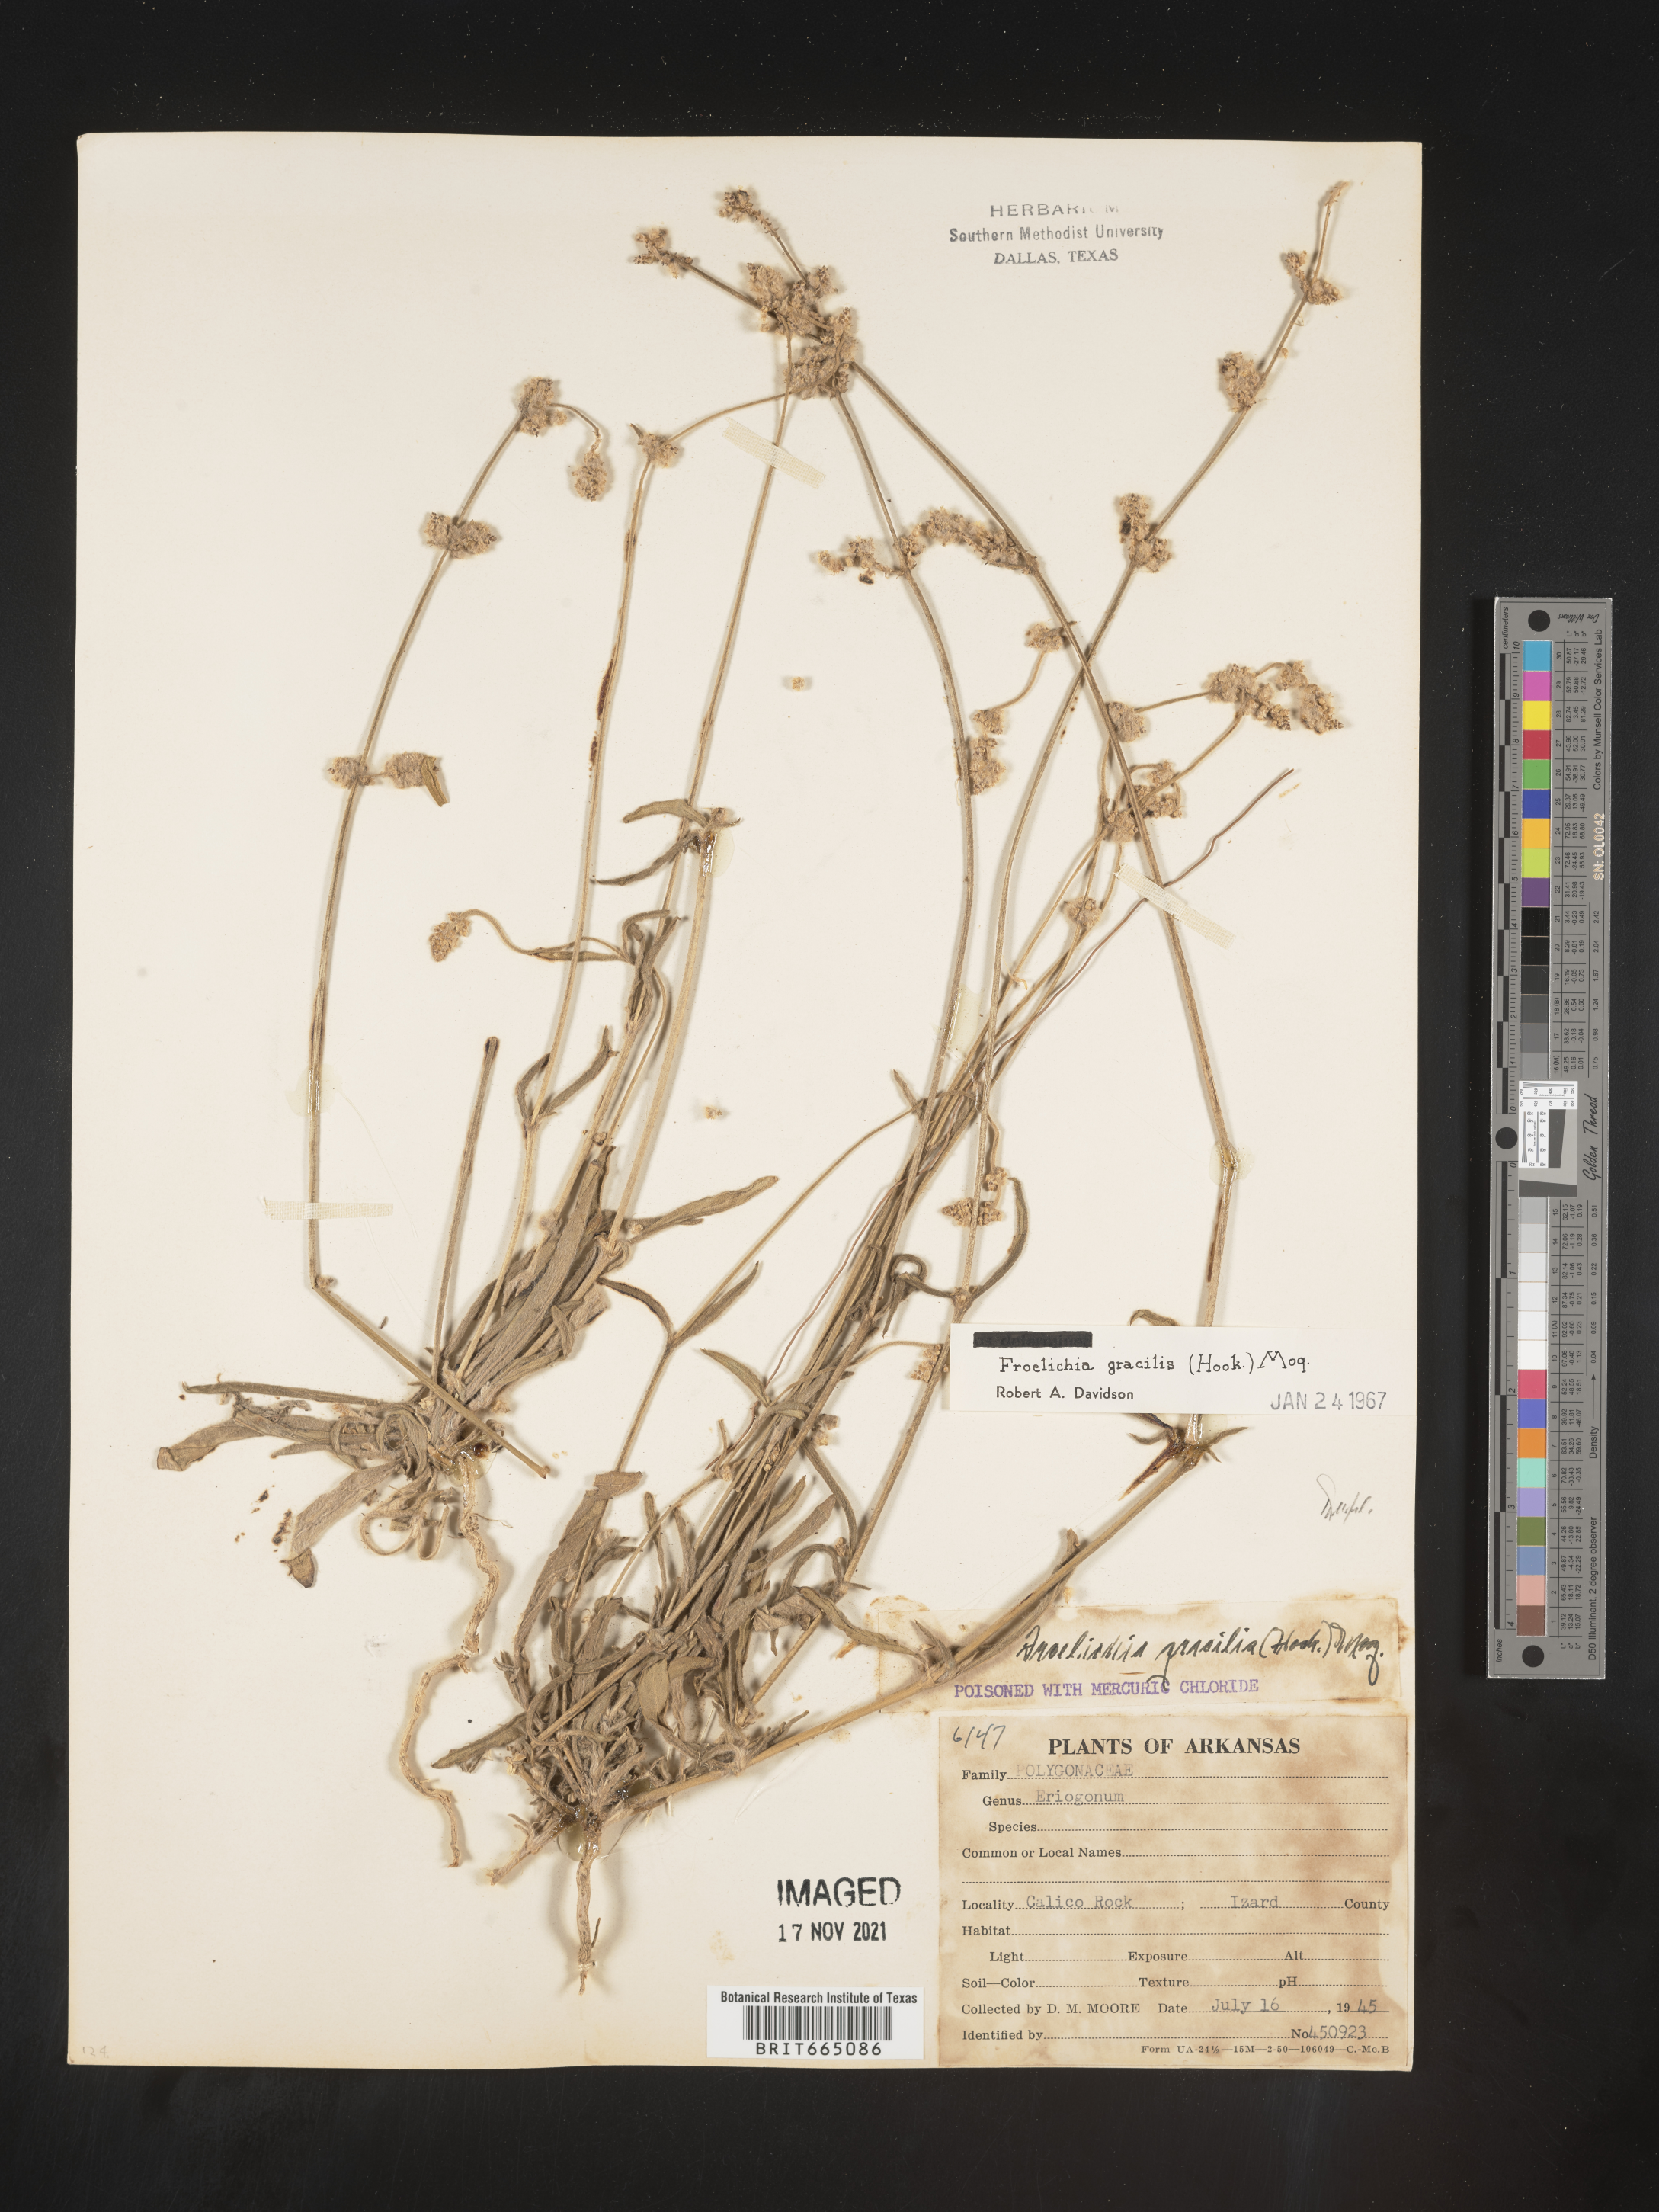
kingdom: Plantae
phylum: Tracheophyta
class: Magnoliopsida
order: Caryophyllales
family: Amaranthaceae
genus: Froelichia
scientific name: Froelichia gracilis
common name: Slender cottonweed
